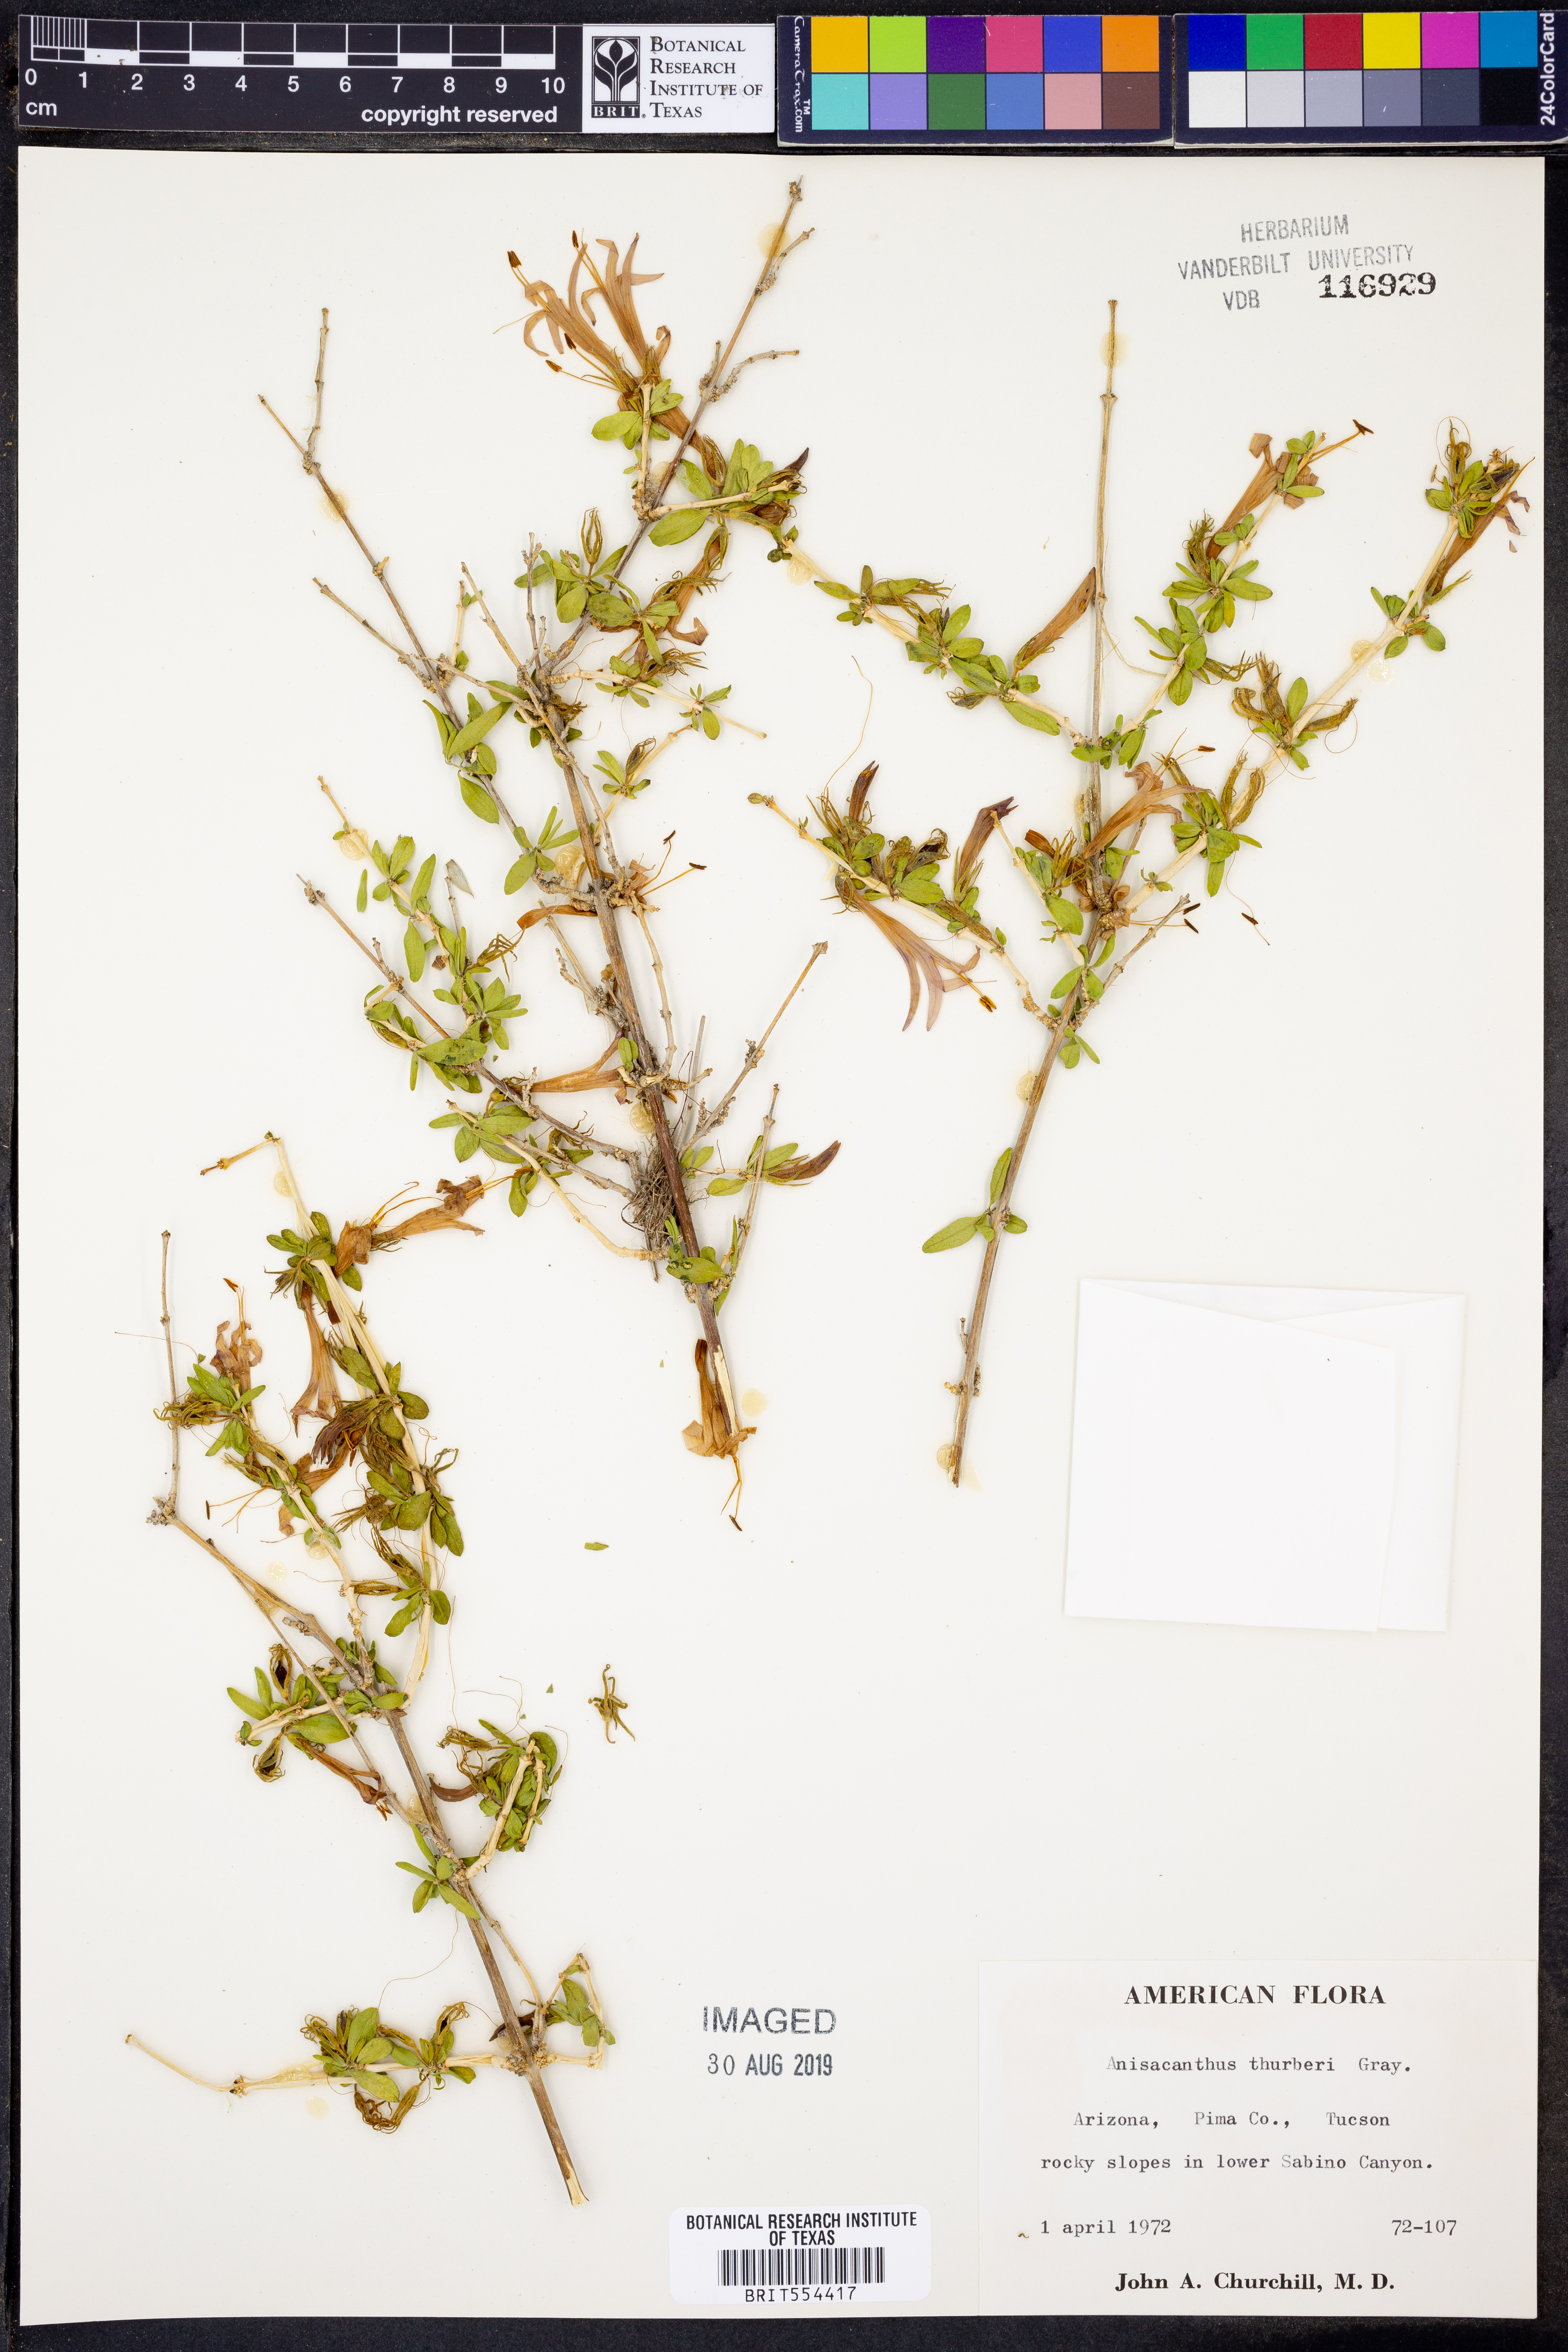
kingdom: Plantae
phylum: Tracheophyta
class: Magnoliopsida
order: Lamiales
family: Acanthaceae
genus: Anisacanthus
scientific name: Anisacanthus thurberi
